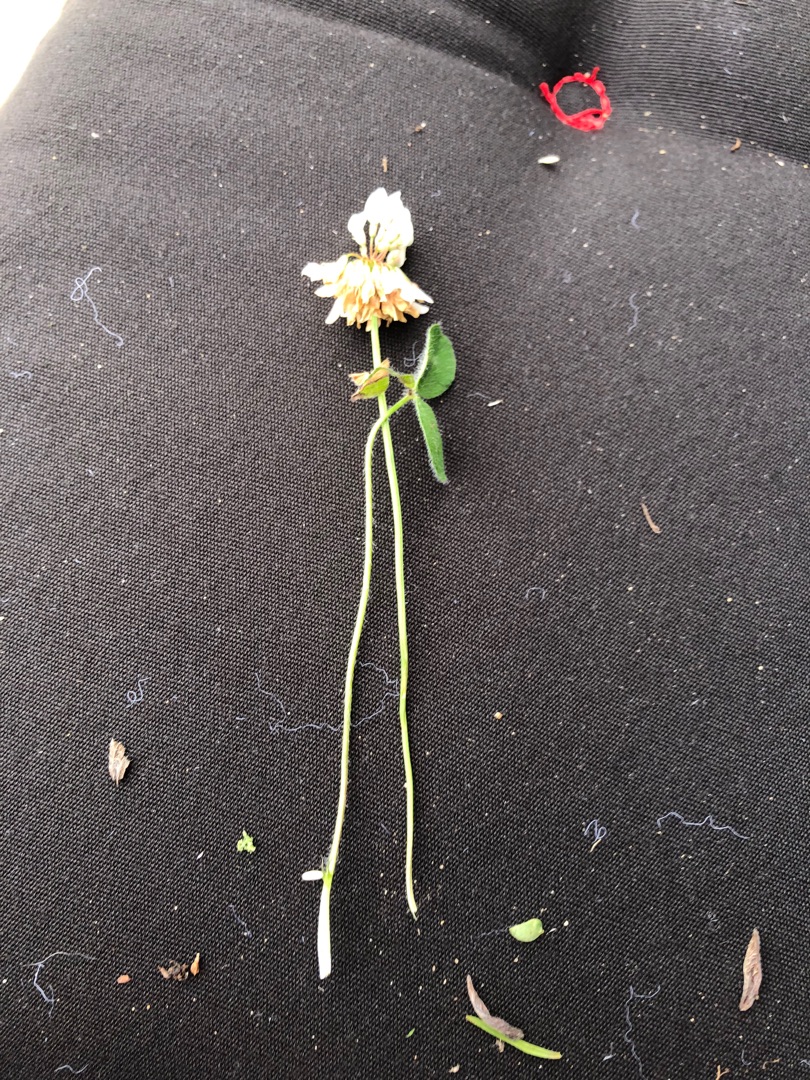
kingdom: Plantae
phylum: Tracheophyta
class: Magnoliopsida
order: Fabales
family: Fabaceae
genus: Trifolium
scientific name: Trifolium repens
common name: Hvid-kløver
